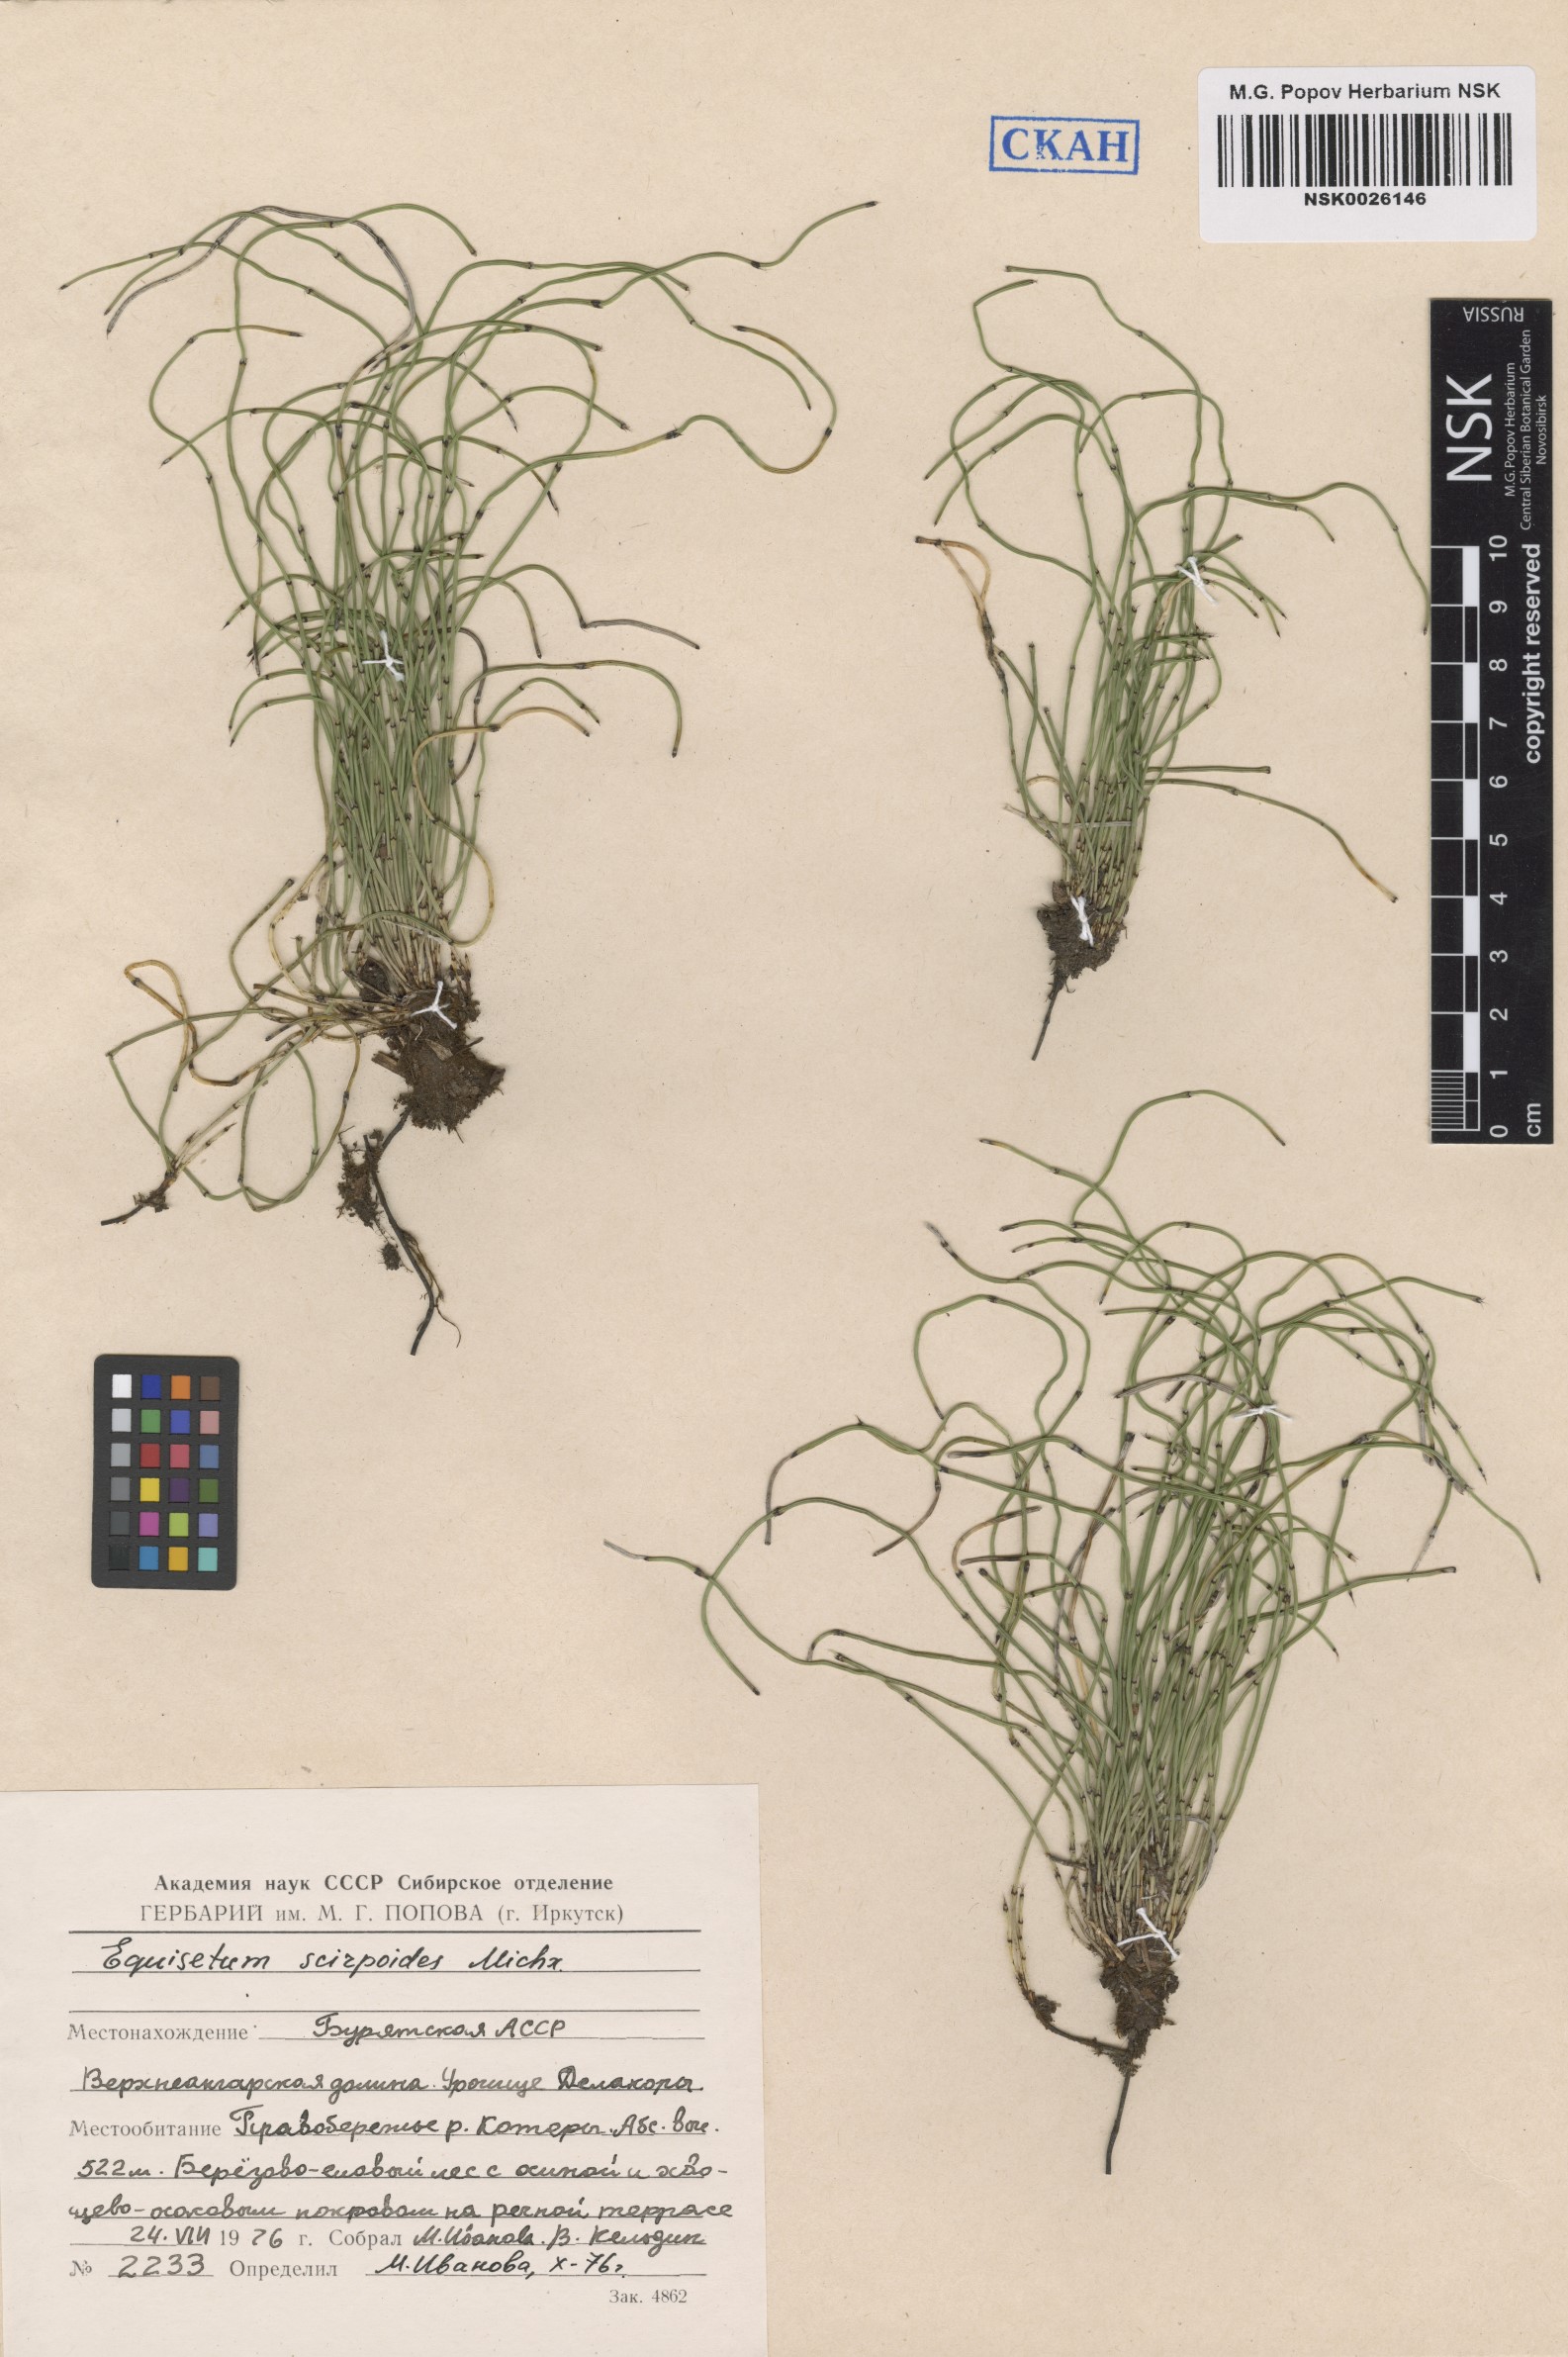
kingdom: Plantae
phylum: Tracheophyta
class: Polypodiopsida
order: Equisetales
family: Equisetaceae
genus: Equisetum
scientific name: Equisetum scirpoides
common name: Delicate horsetail
